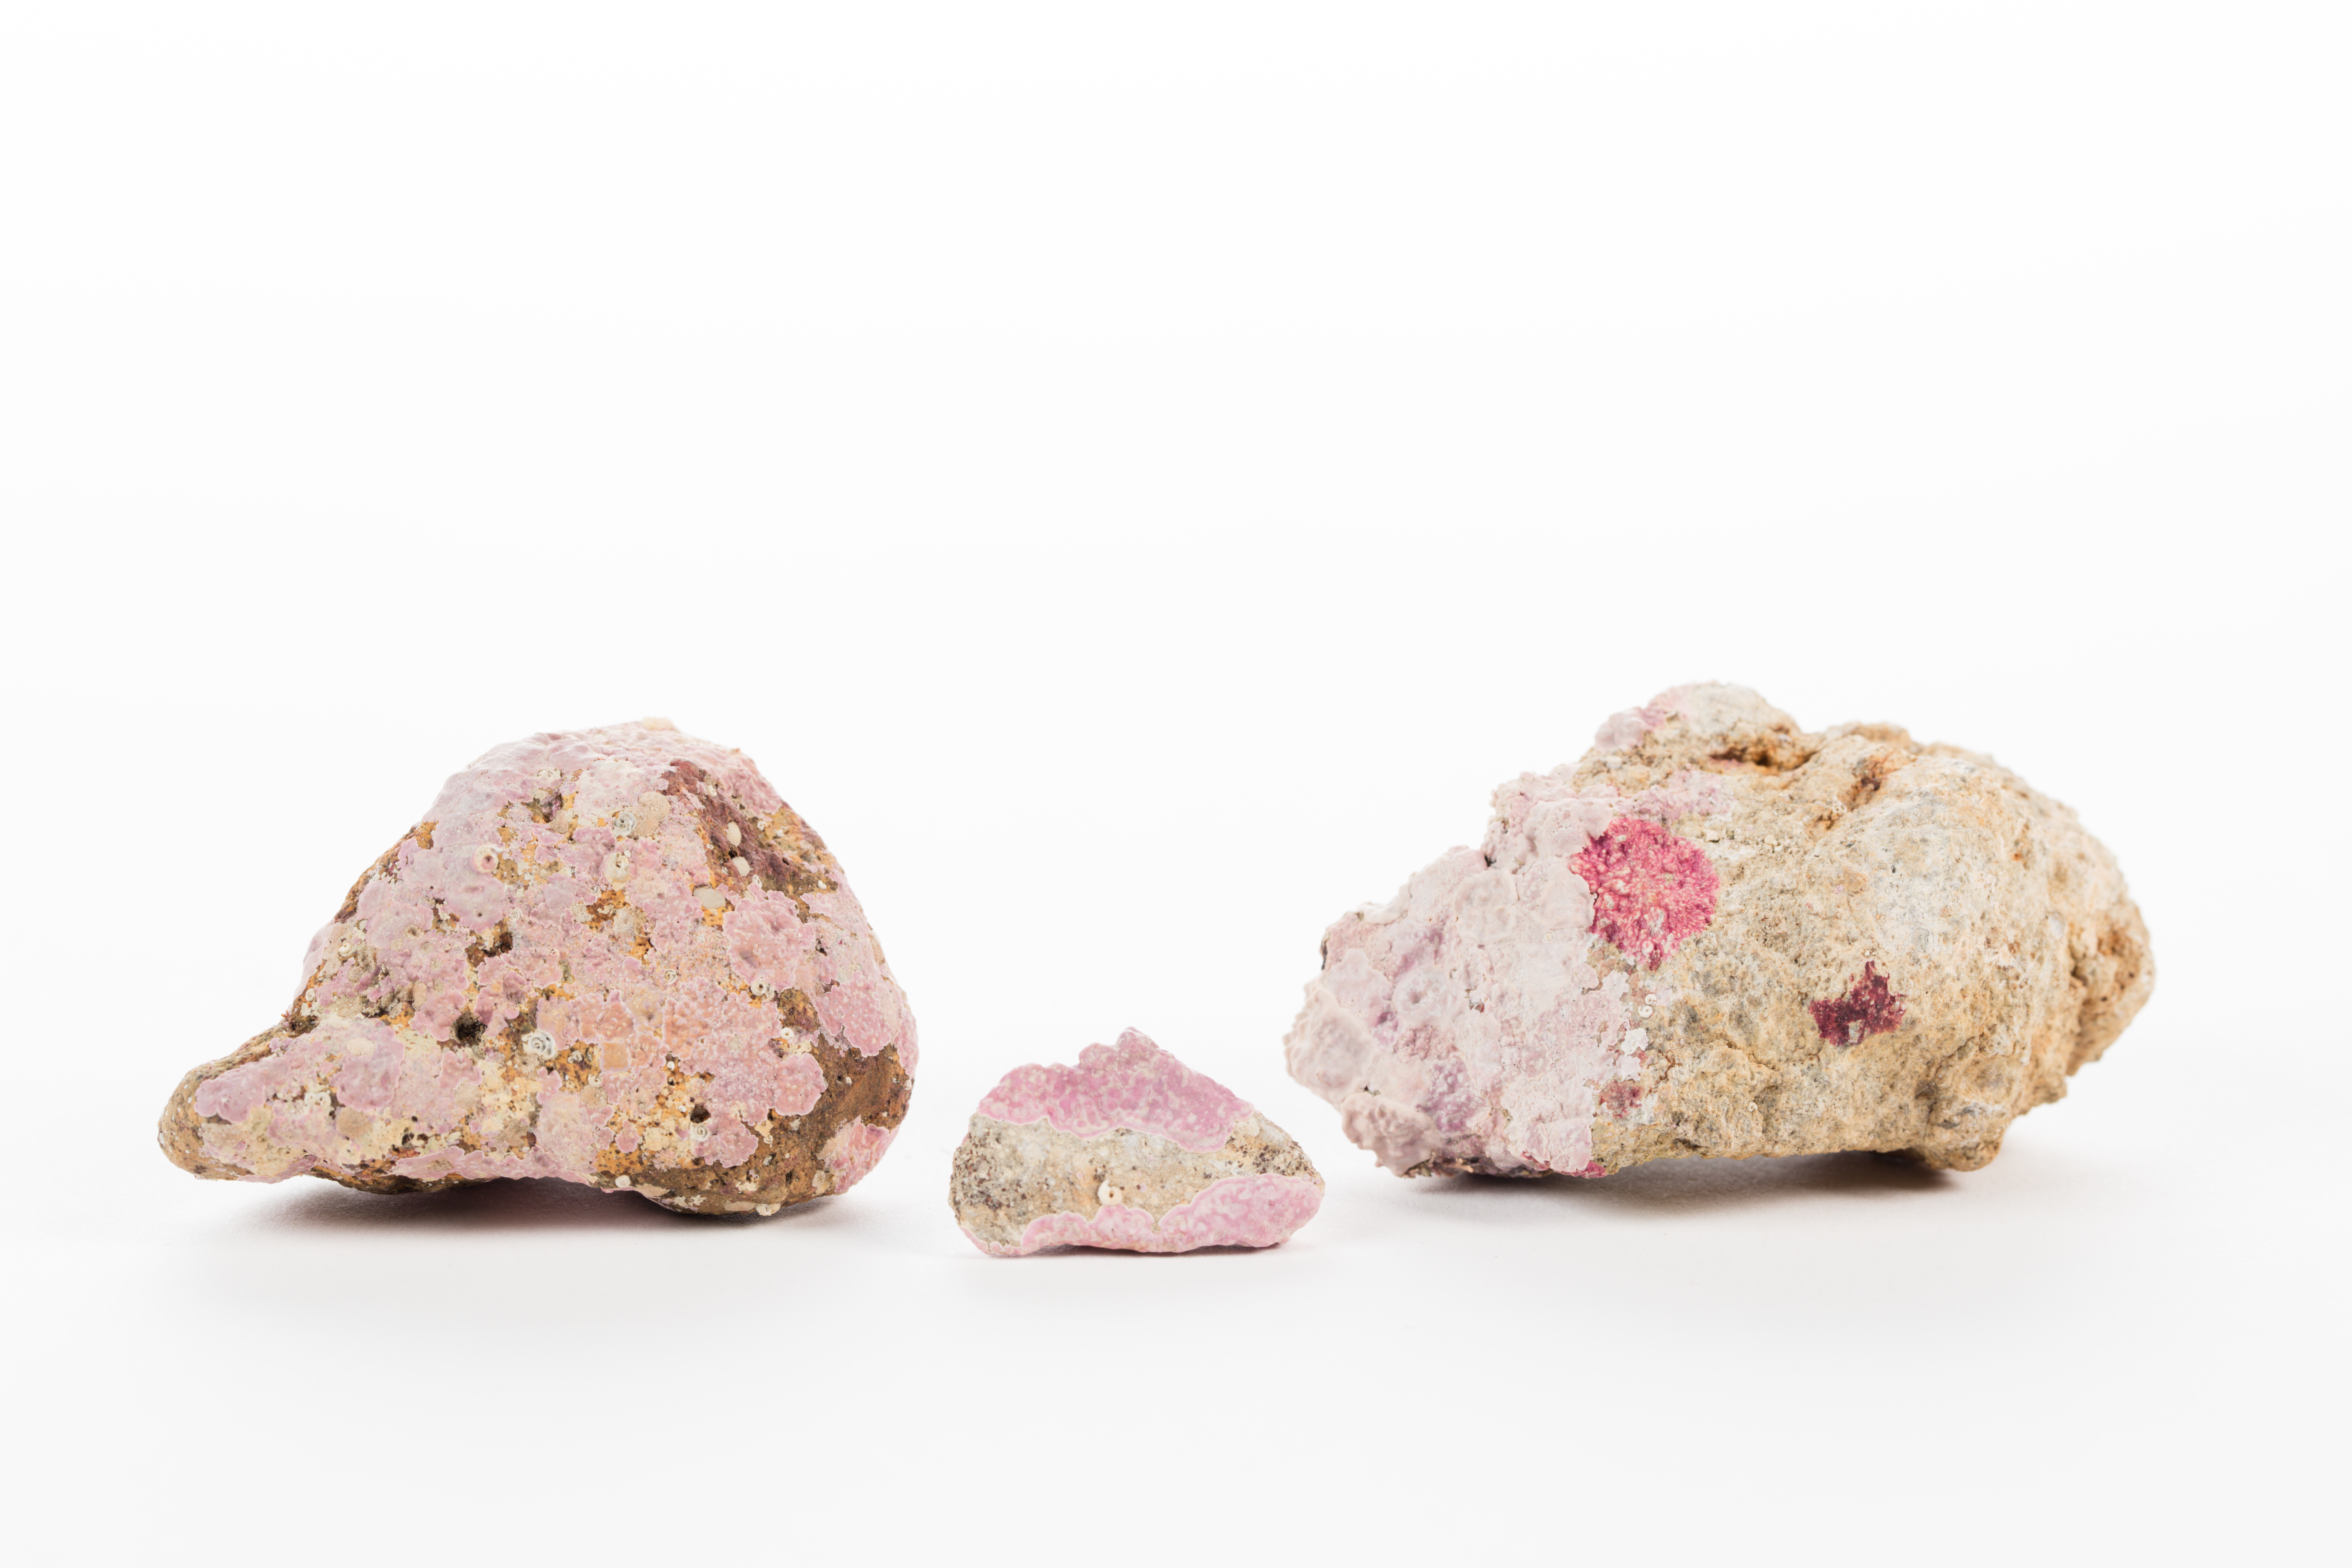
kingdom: Plantae
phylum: Rhodophyta
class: Florideophyceae
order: Corallinales
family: Mesophyllumaceae
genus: Mesophyllum
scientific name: Mesophyllum
